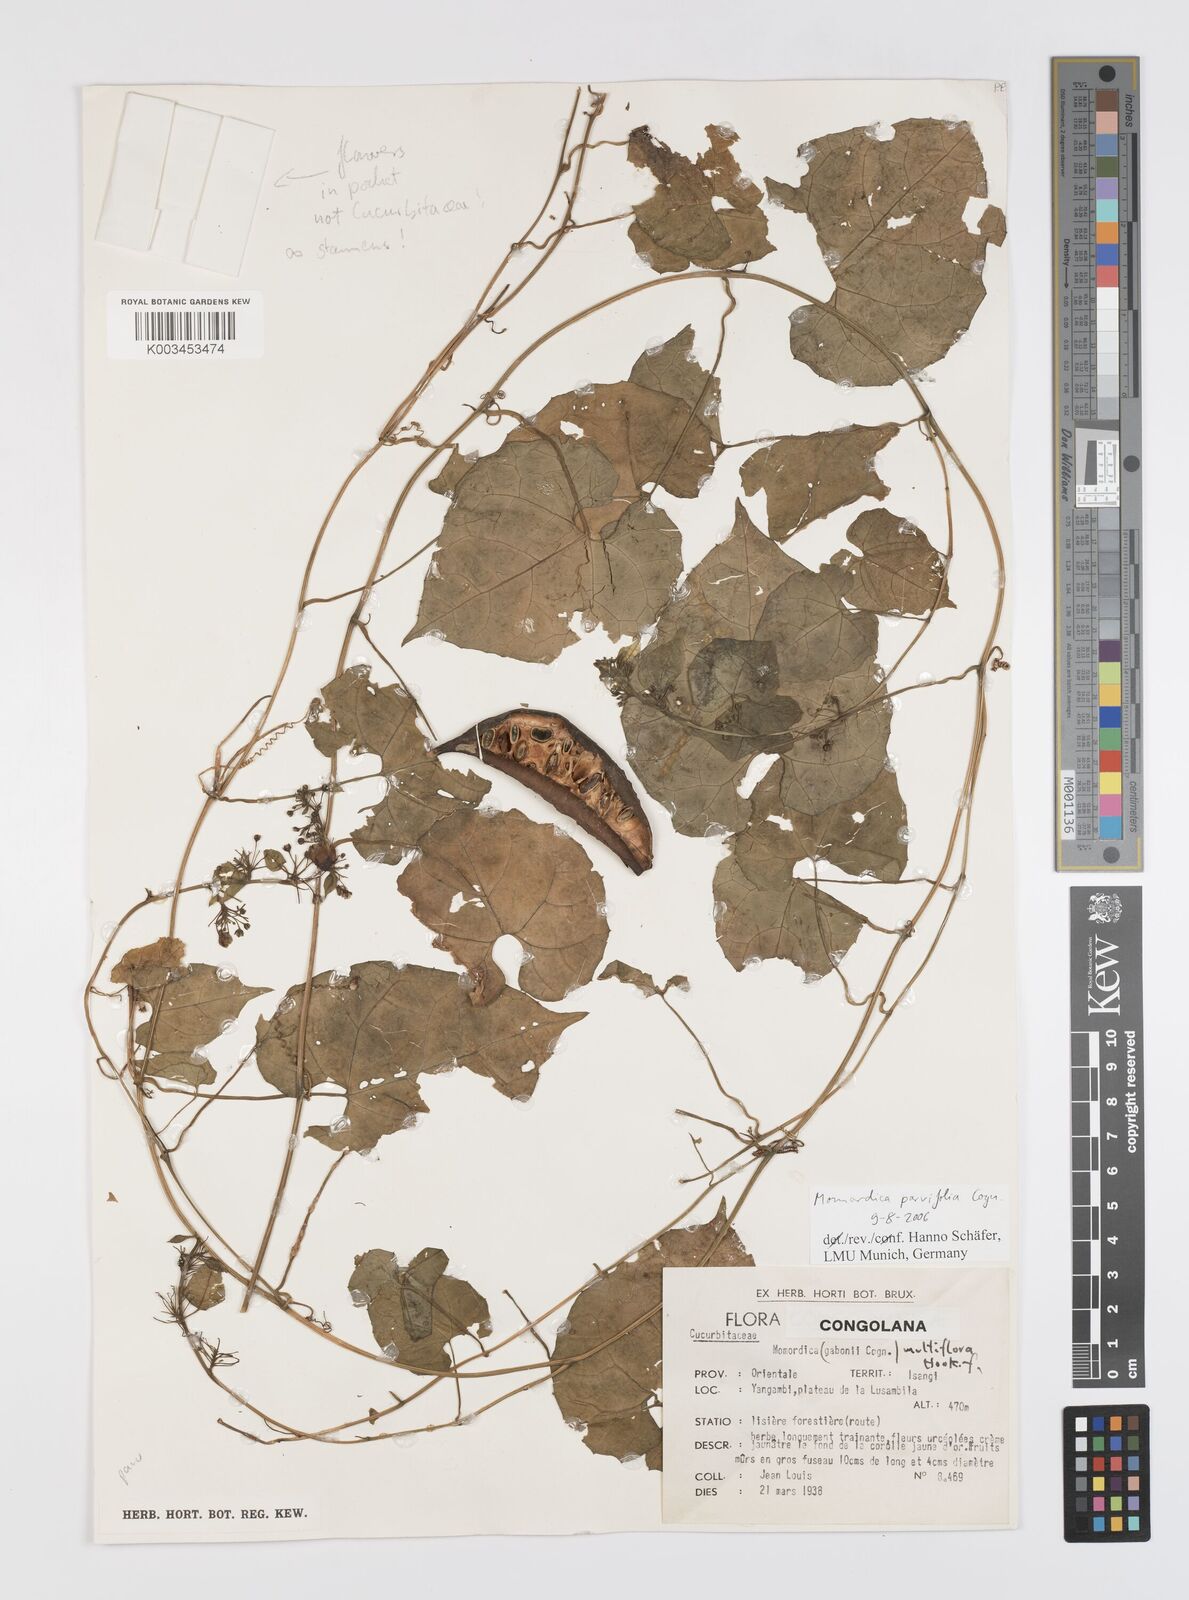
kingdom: Plantae
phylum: Tracheophyta
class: Magnoliopsida
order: Cucurbitales
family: Cucurbitaceae
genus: Momordica
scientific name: Momordica parvifolia
